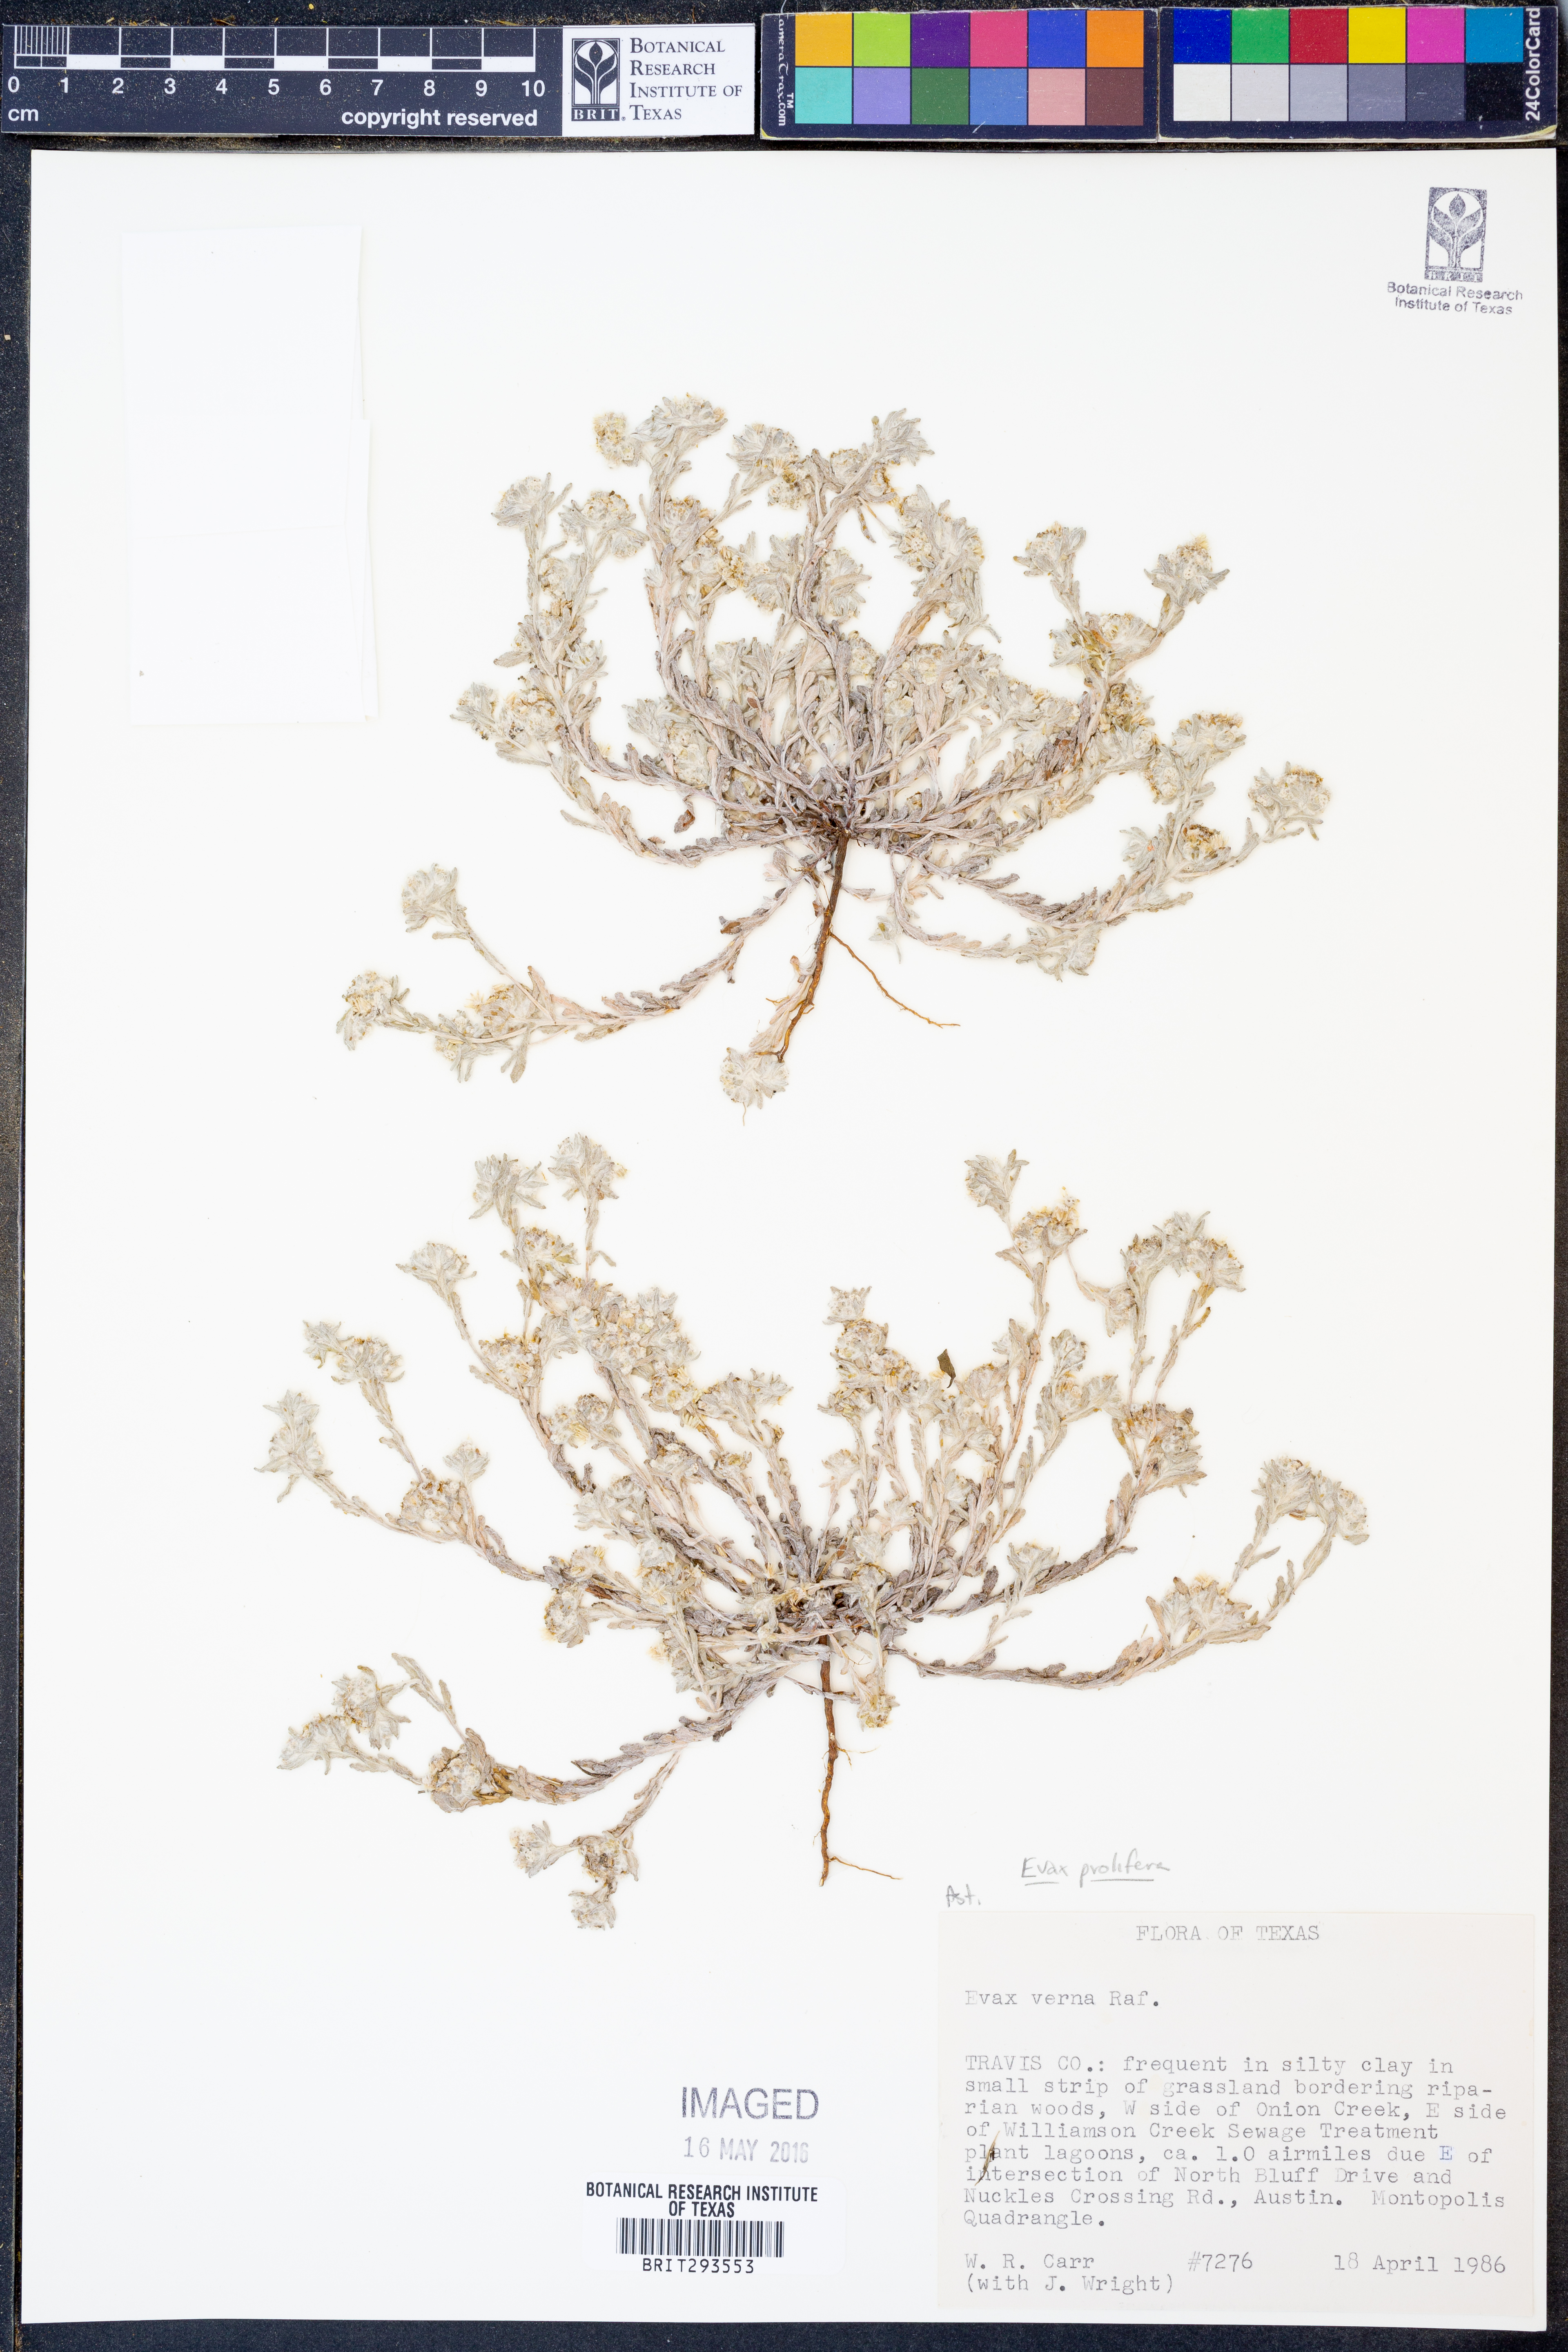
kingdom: Plantae
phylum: Tracheophyta
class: Magnoliopsida
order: Asterales
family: Asteraceae
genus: Diaperia
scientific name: Diaperia prolifera
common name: Big-head rabbit-tobacco
